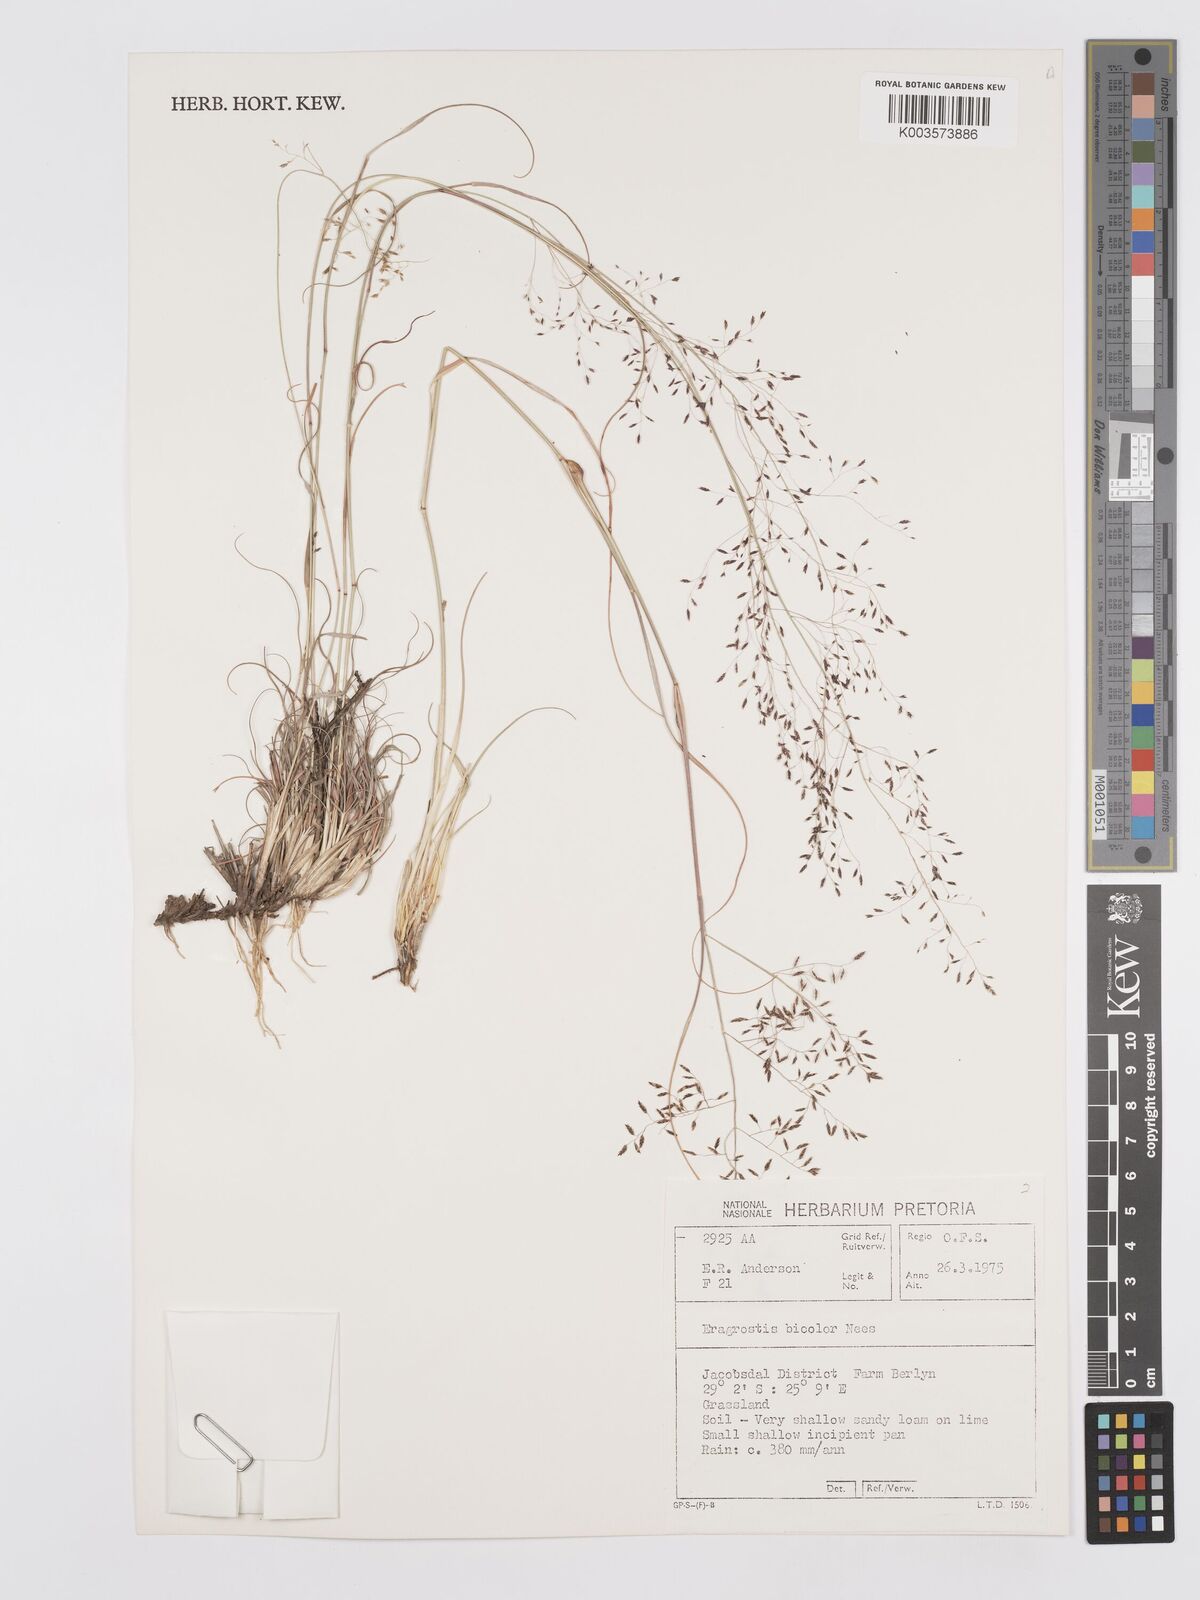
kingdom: Plantae
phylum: Tracheophyta
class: Liliopsida
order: Poales
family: Poaceae
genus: Eragrostis
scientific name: Eragrostis
